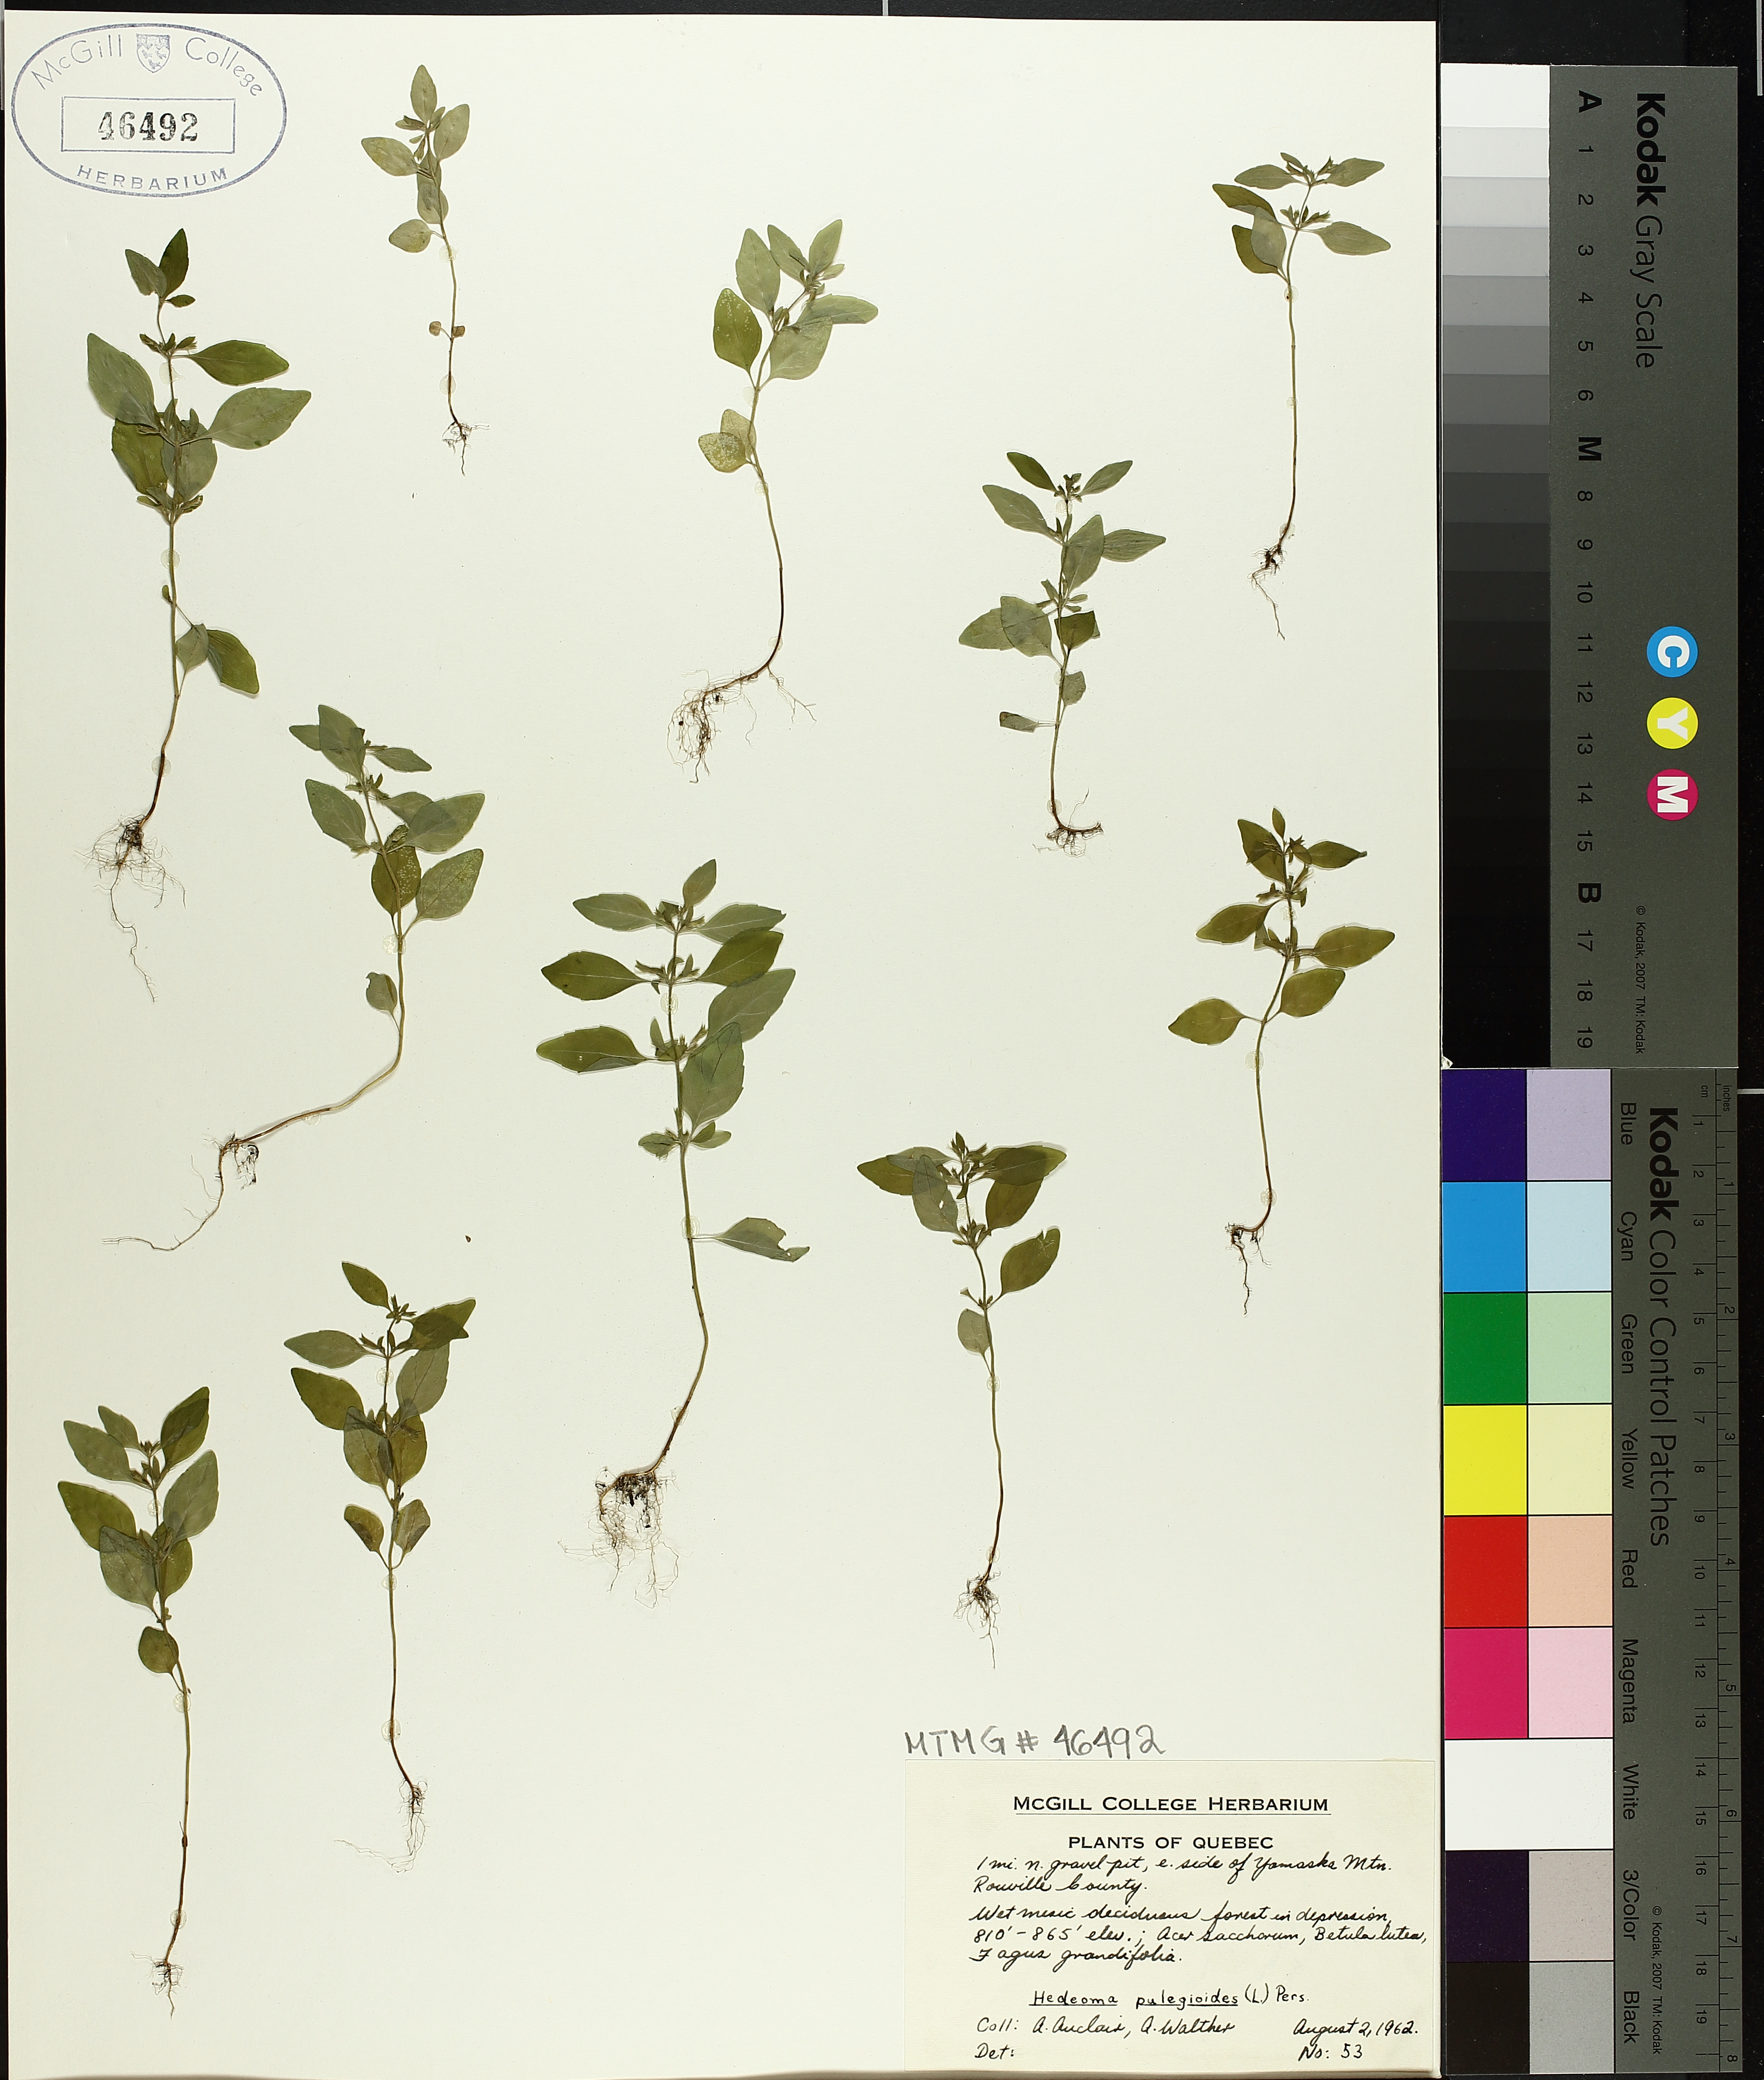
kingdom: Plantae
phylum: Tracheophyta
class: Magnoliopsida
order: Lamiales
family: Lamiaceae
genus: Hedeoma
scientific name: Hedeoma pulegioides
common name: American false pennyroyal
